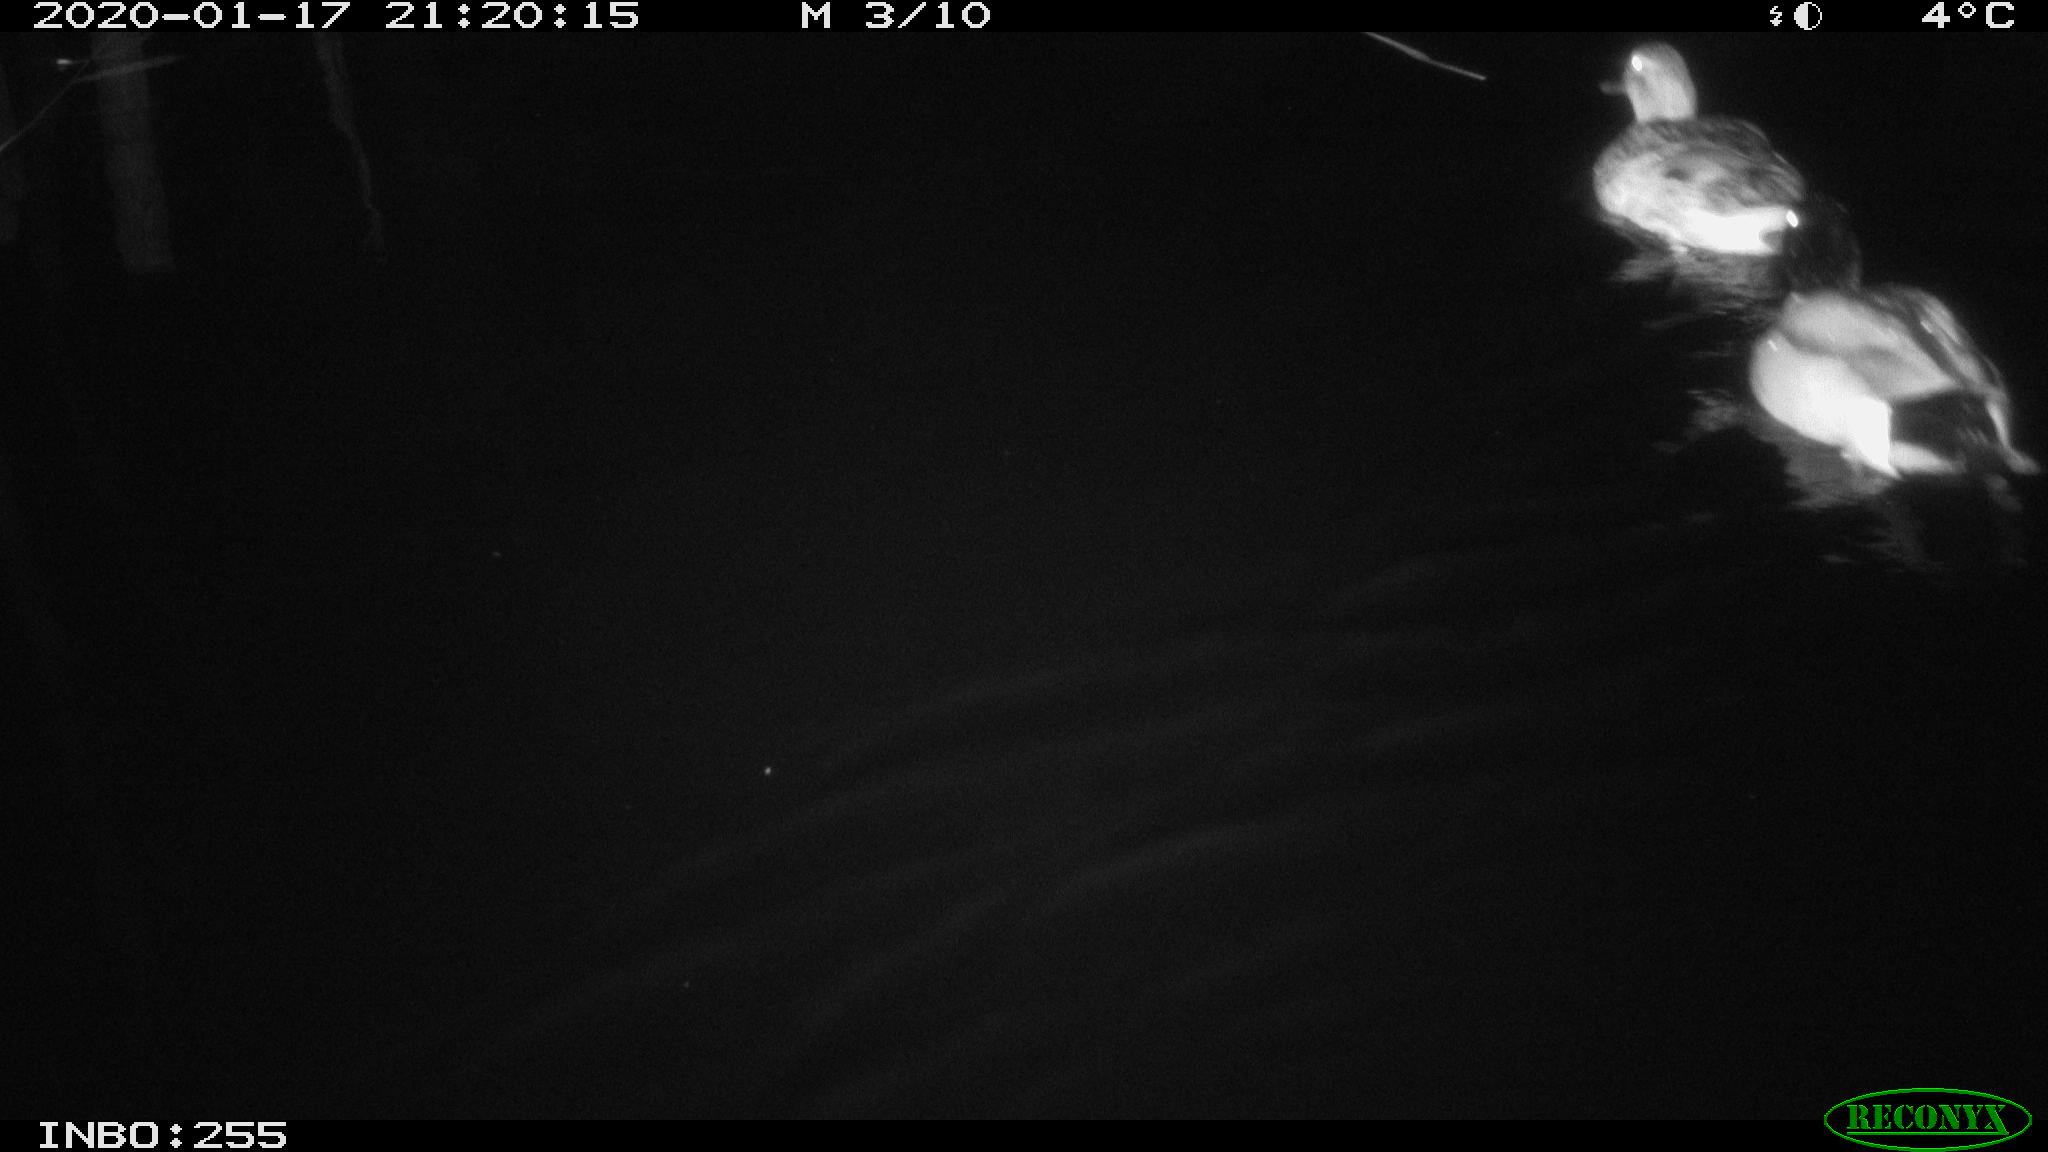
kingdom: Animalia
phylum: Chordata
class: Aves
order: Anseriformes
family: Anatidae
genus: Anas
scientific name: Anas platyrhynchos
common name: Mallard
